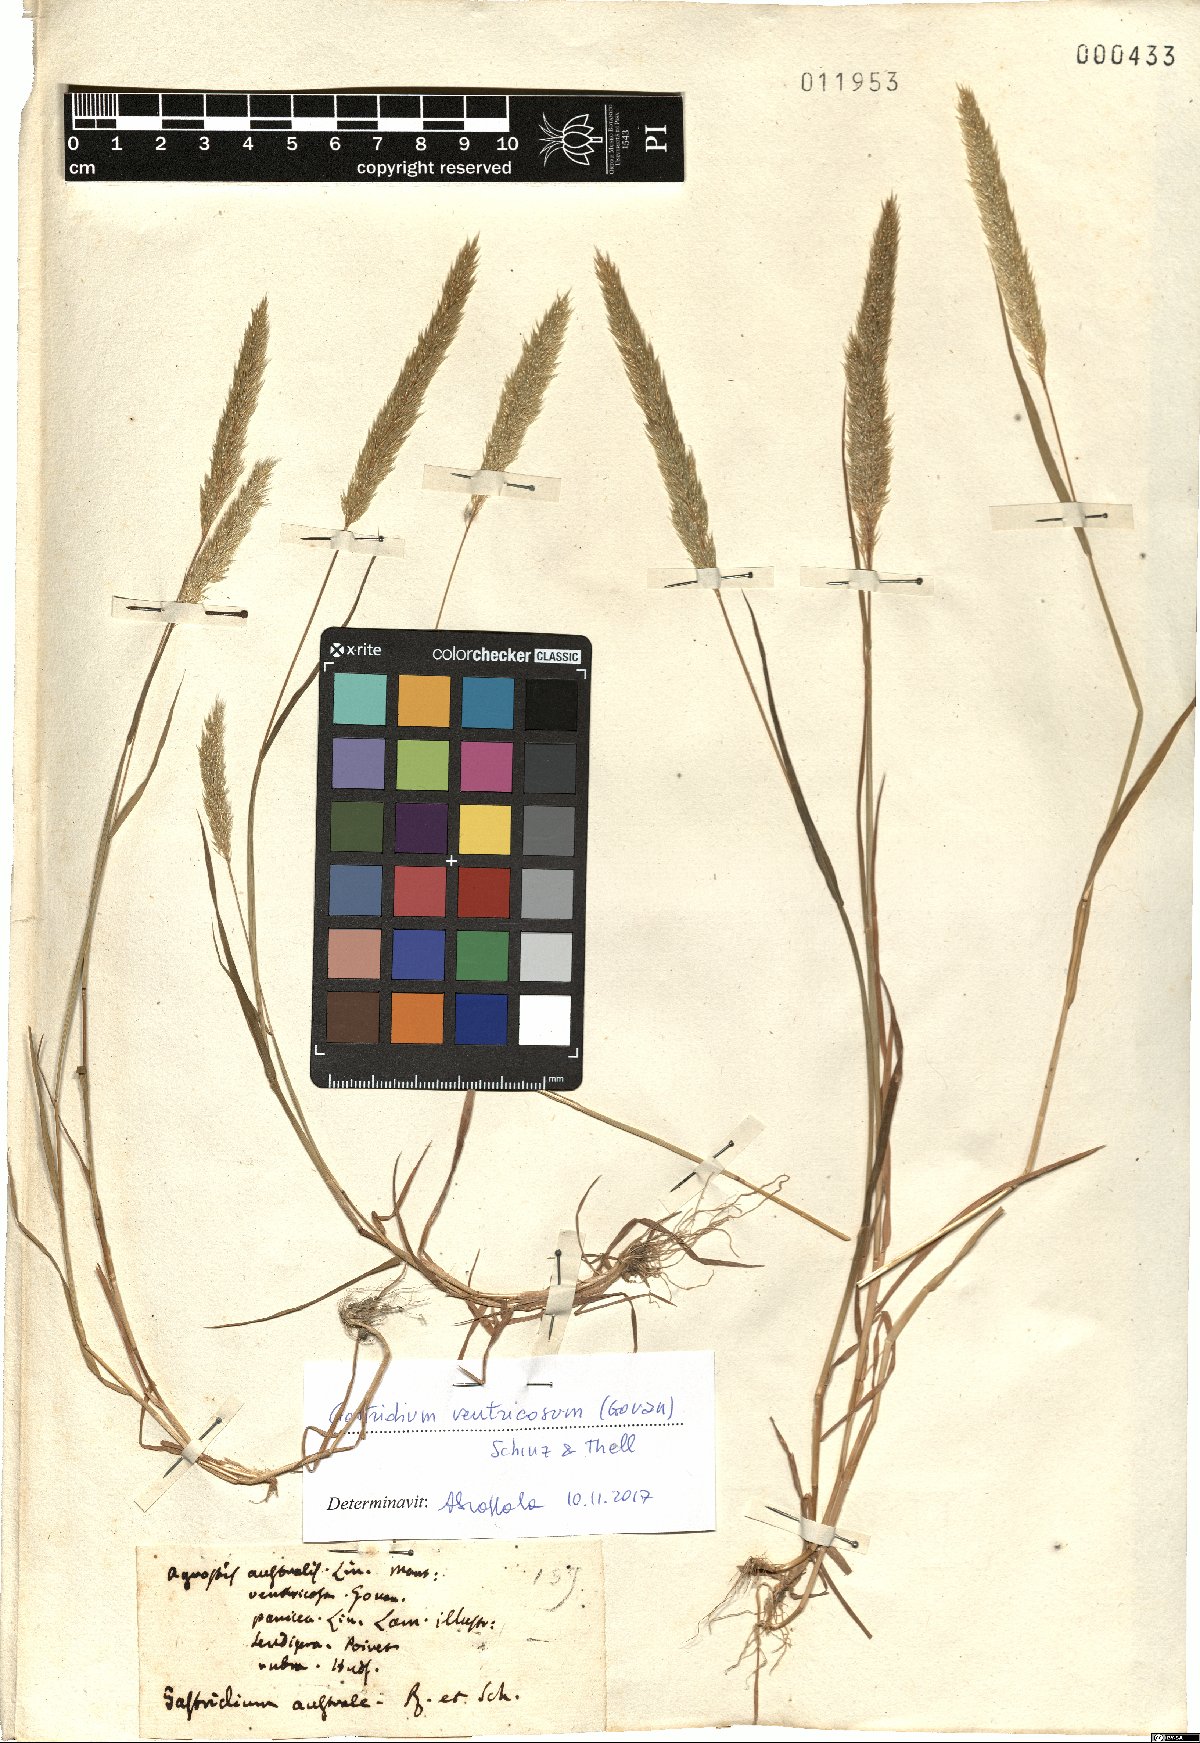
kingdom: Plantae
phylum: Tracheophyta
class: Liliopsida
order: Poales
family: Poaceae
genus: Gastridium
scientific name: Gastridium ventricosum
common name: Nit-grass
